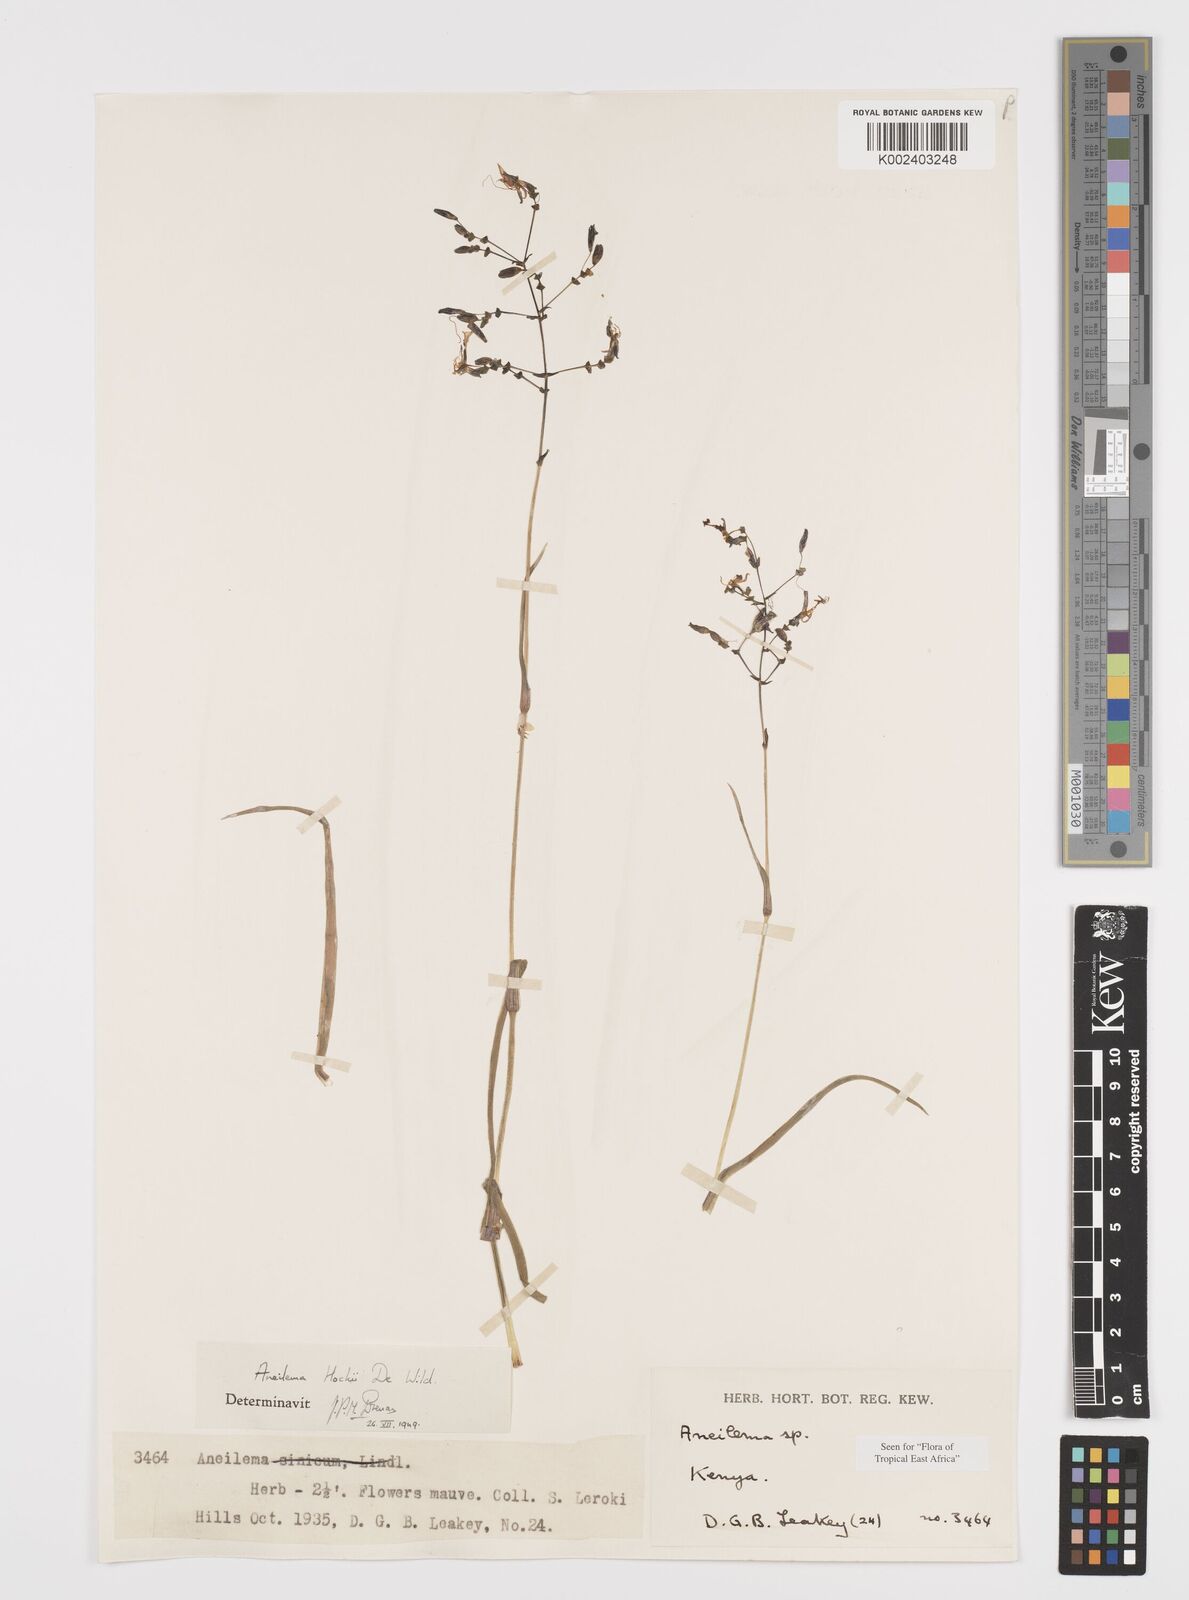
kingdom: Plantae
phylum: Tracheophyta
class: Liliopsida
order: Commelinales
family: Commelinaceae
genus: Aneilema
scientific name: Aneilema hockii
